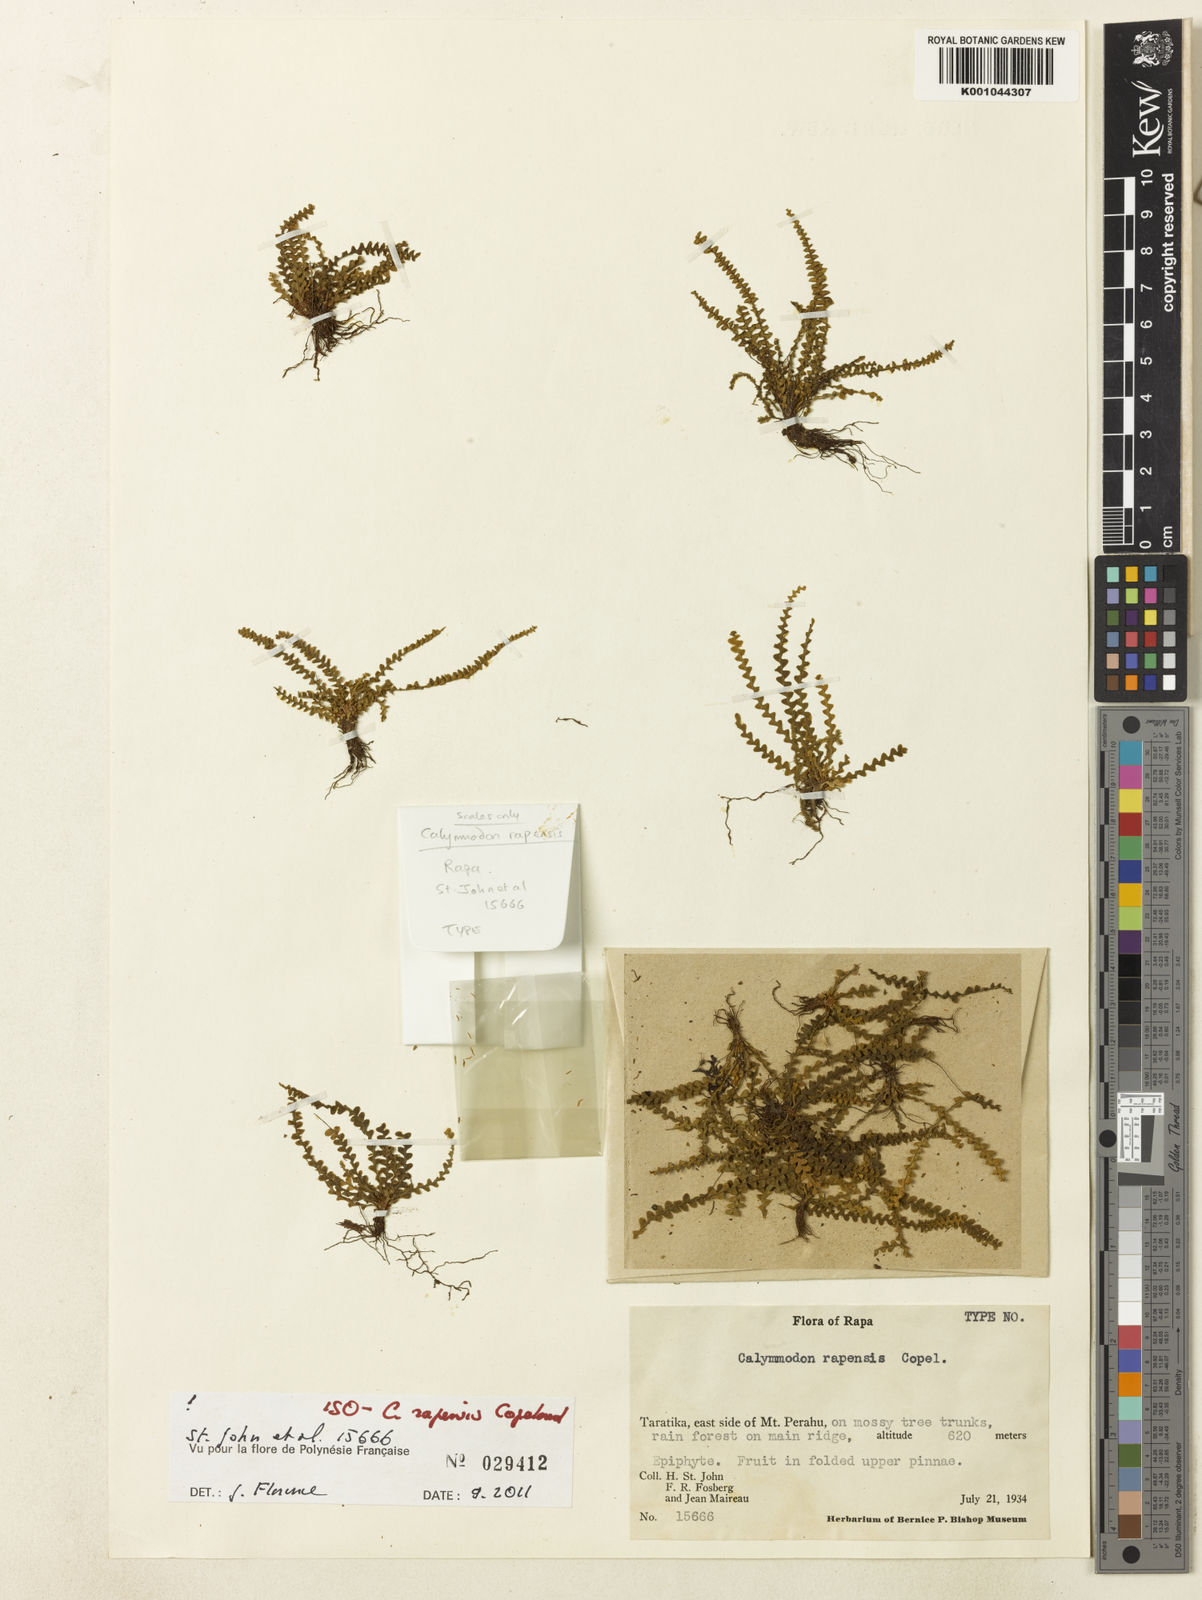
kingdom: Plantae
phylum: Tracheophyta
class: Polypodiopsida
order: Polypodiales
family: Polypodiaceae
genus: Calymmodon
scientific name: Calymmodon rapensis
